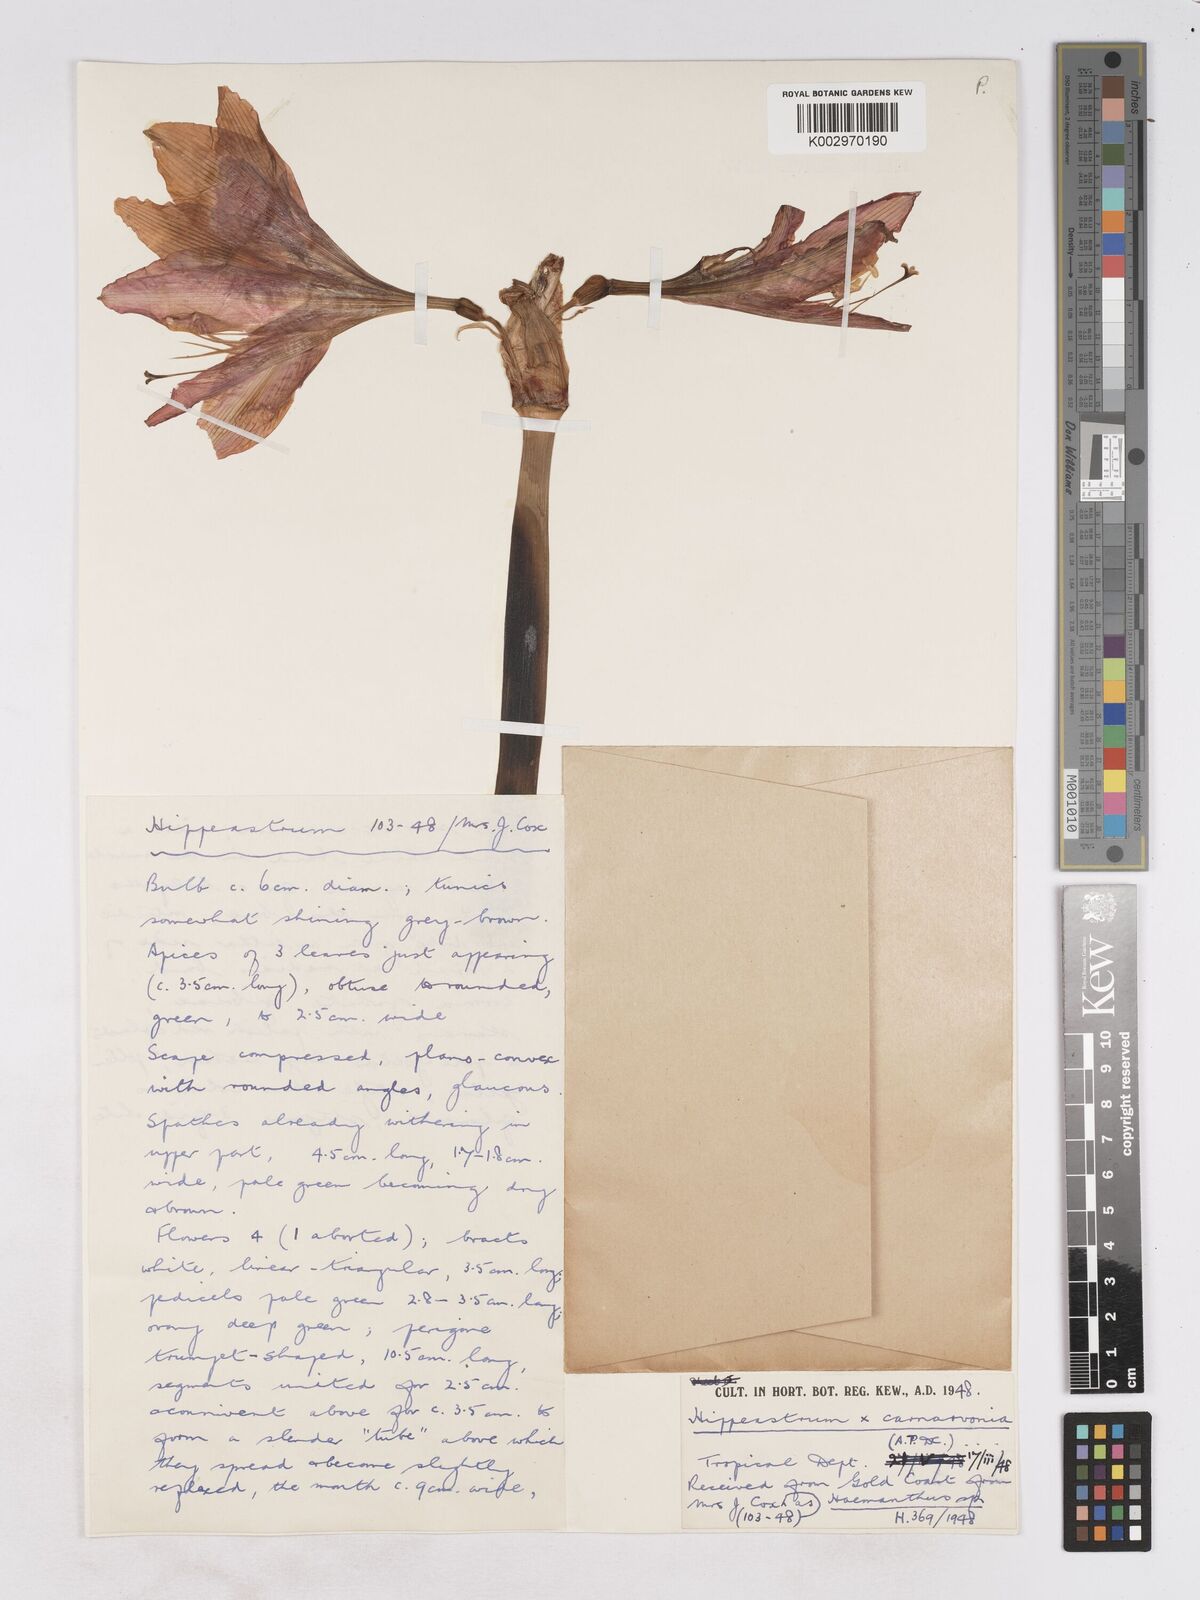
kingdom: Plantae
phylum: Tracheophyta
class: Liliopsida
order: Asparagales
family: Amaryllidaceae
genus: Hippeastrum
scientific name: Hippeastrum johnsonii
